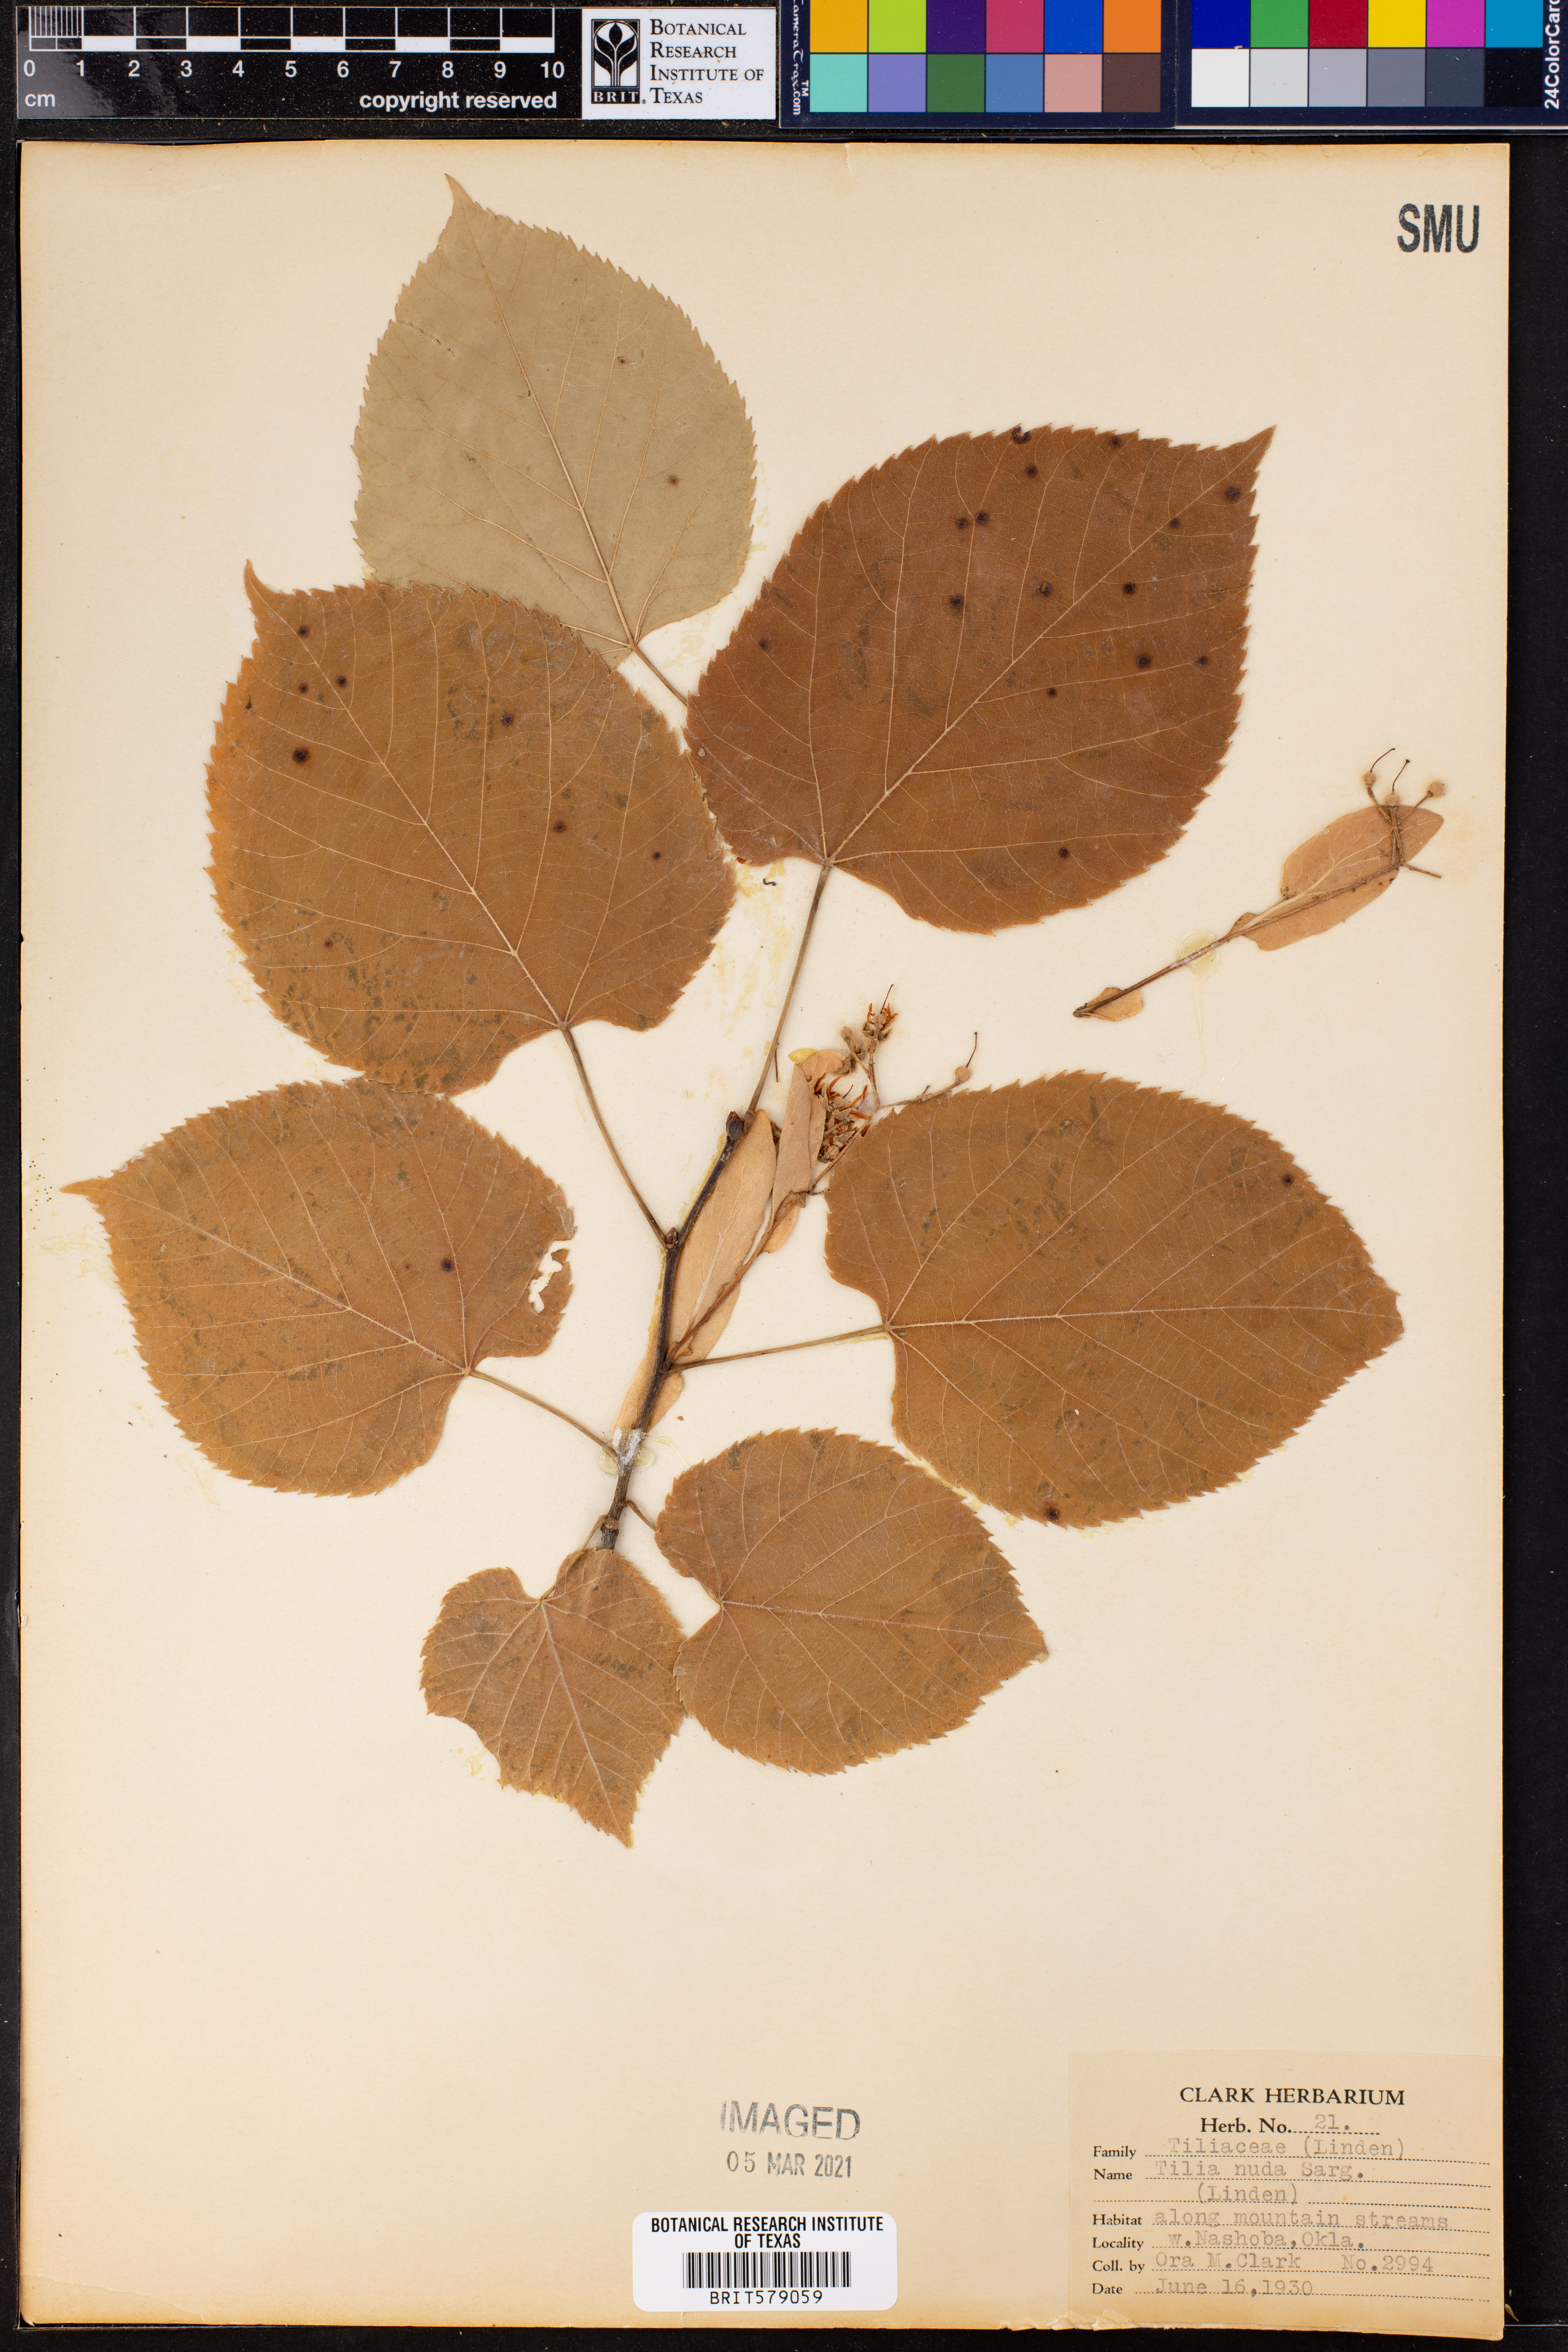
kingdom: Plantae
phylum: Tracheophyta
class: Magnoliopsida
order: Malvales
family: Malvaceae
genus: Tilia
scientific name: Tilia americana
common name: Basswood
